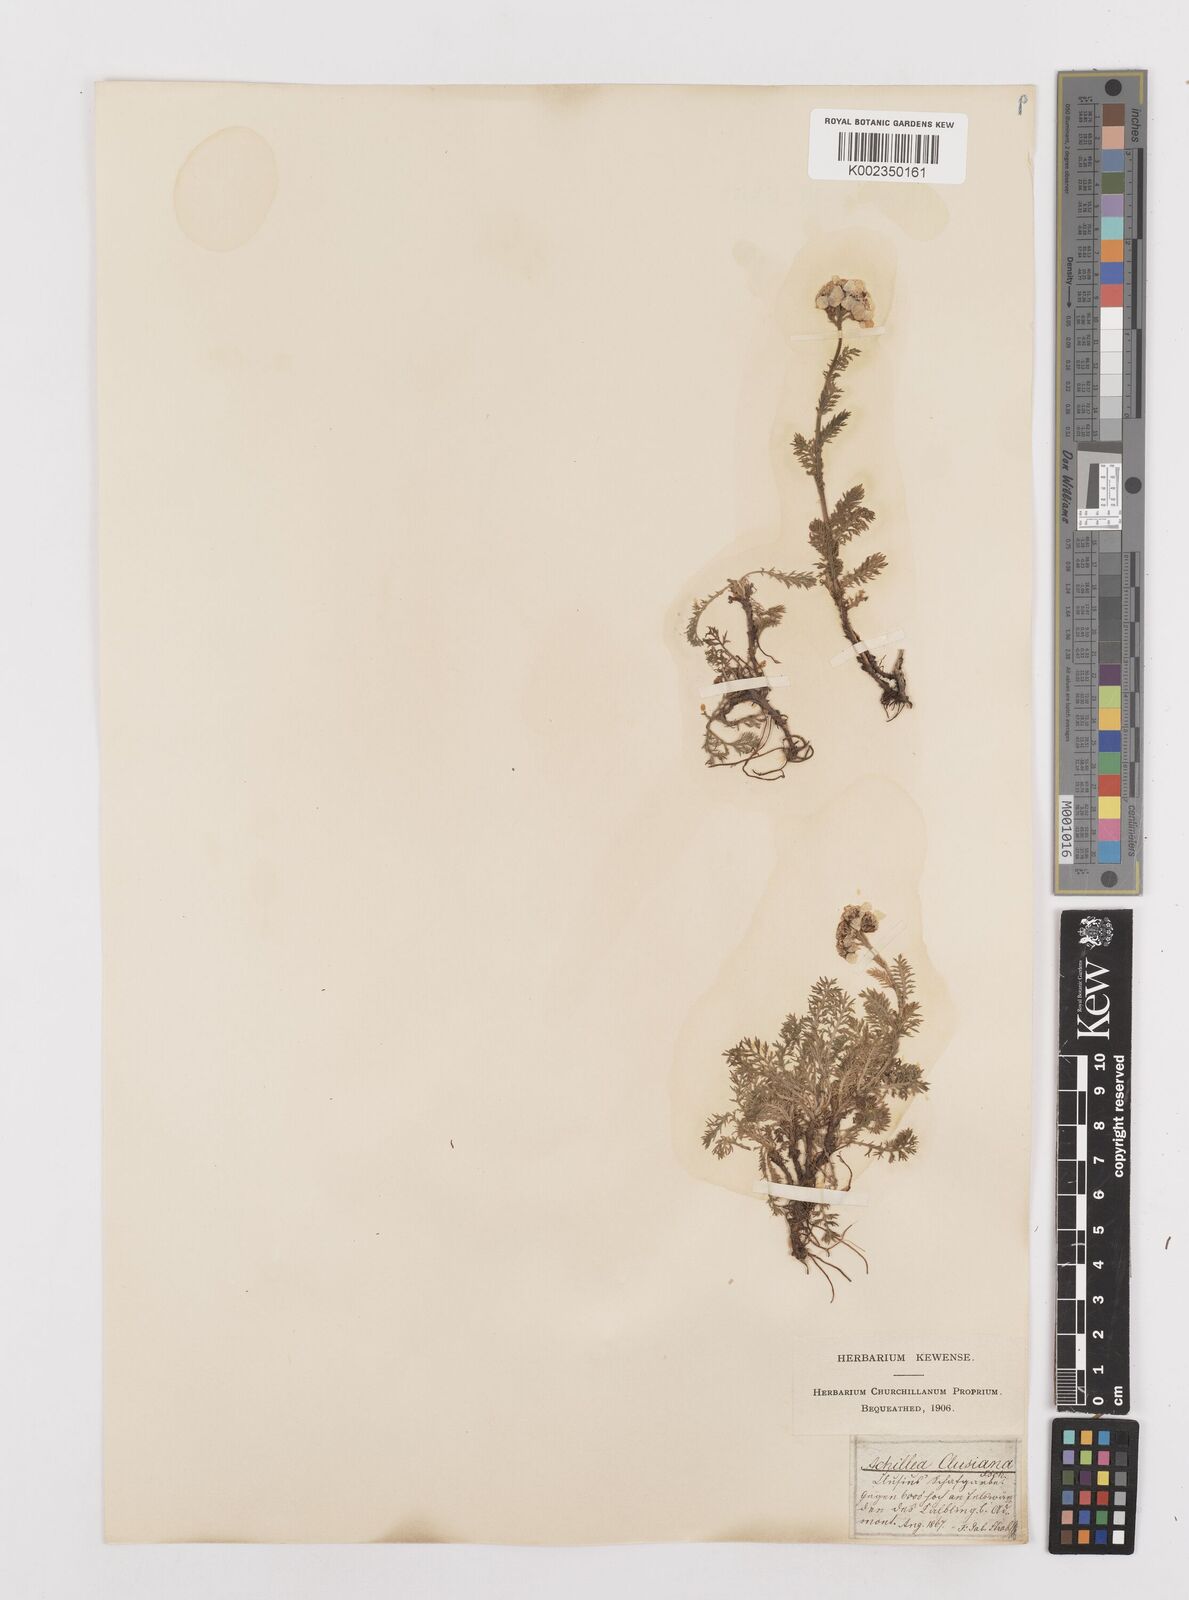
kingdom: Plantae
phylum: Tracheophyta
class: Magnoliopsida
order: Asterales
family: Asteraceae
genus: Achillea
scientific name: Achillea clusiana
